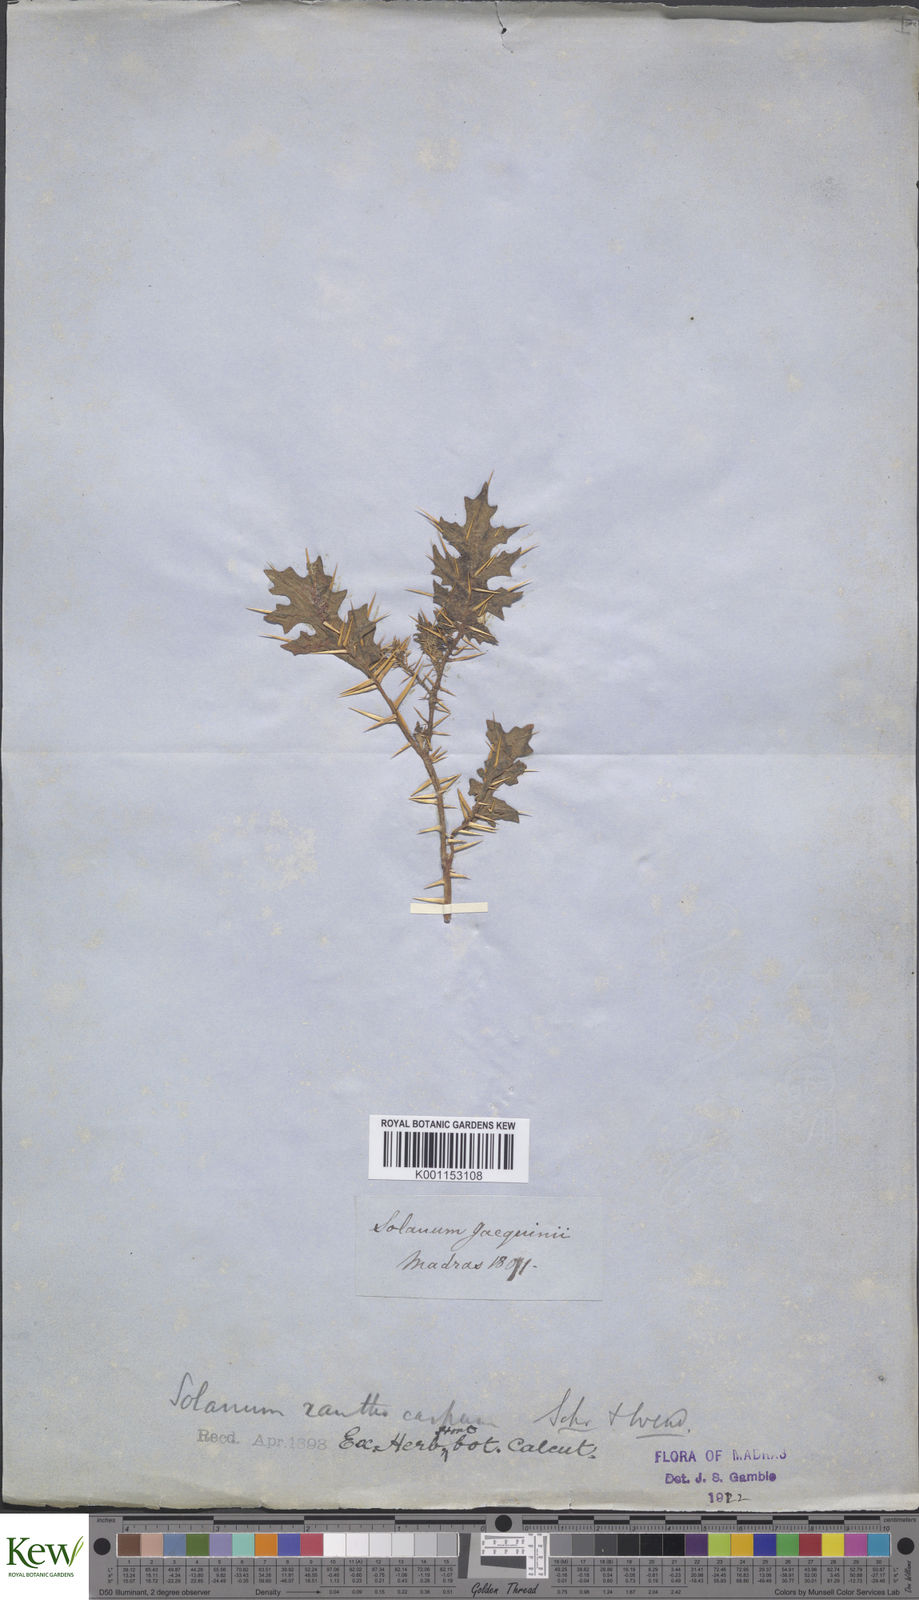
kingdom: Plantae
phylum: Tracheophyta
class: Magnoliopsida
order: Solanales
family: Solanaceae
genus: Solanum
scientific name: Solanum virginianum
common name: Surattense nightshade
